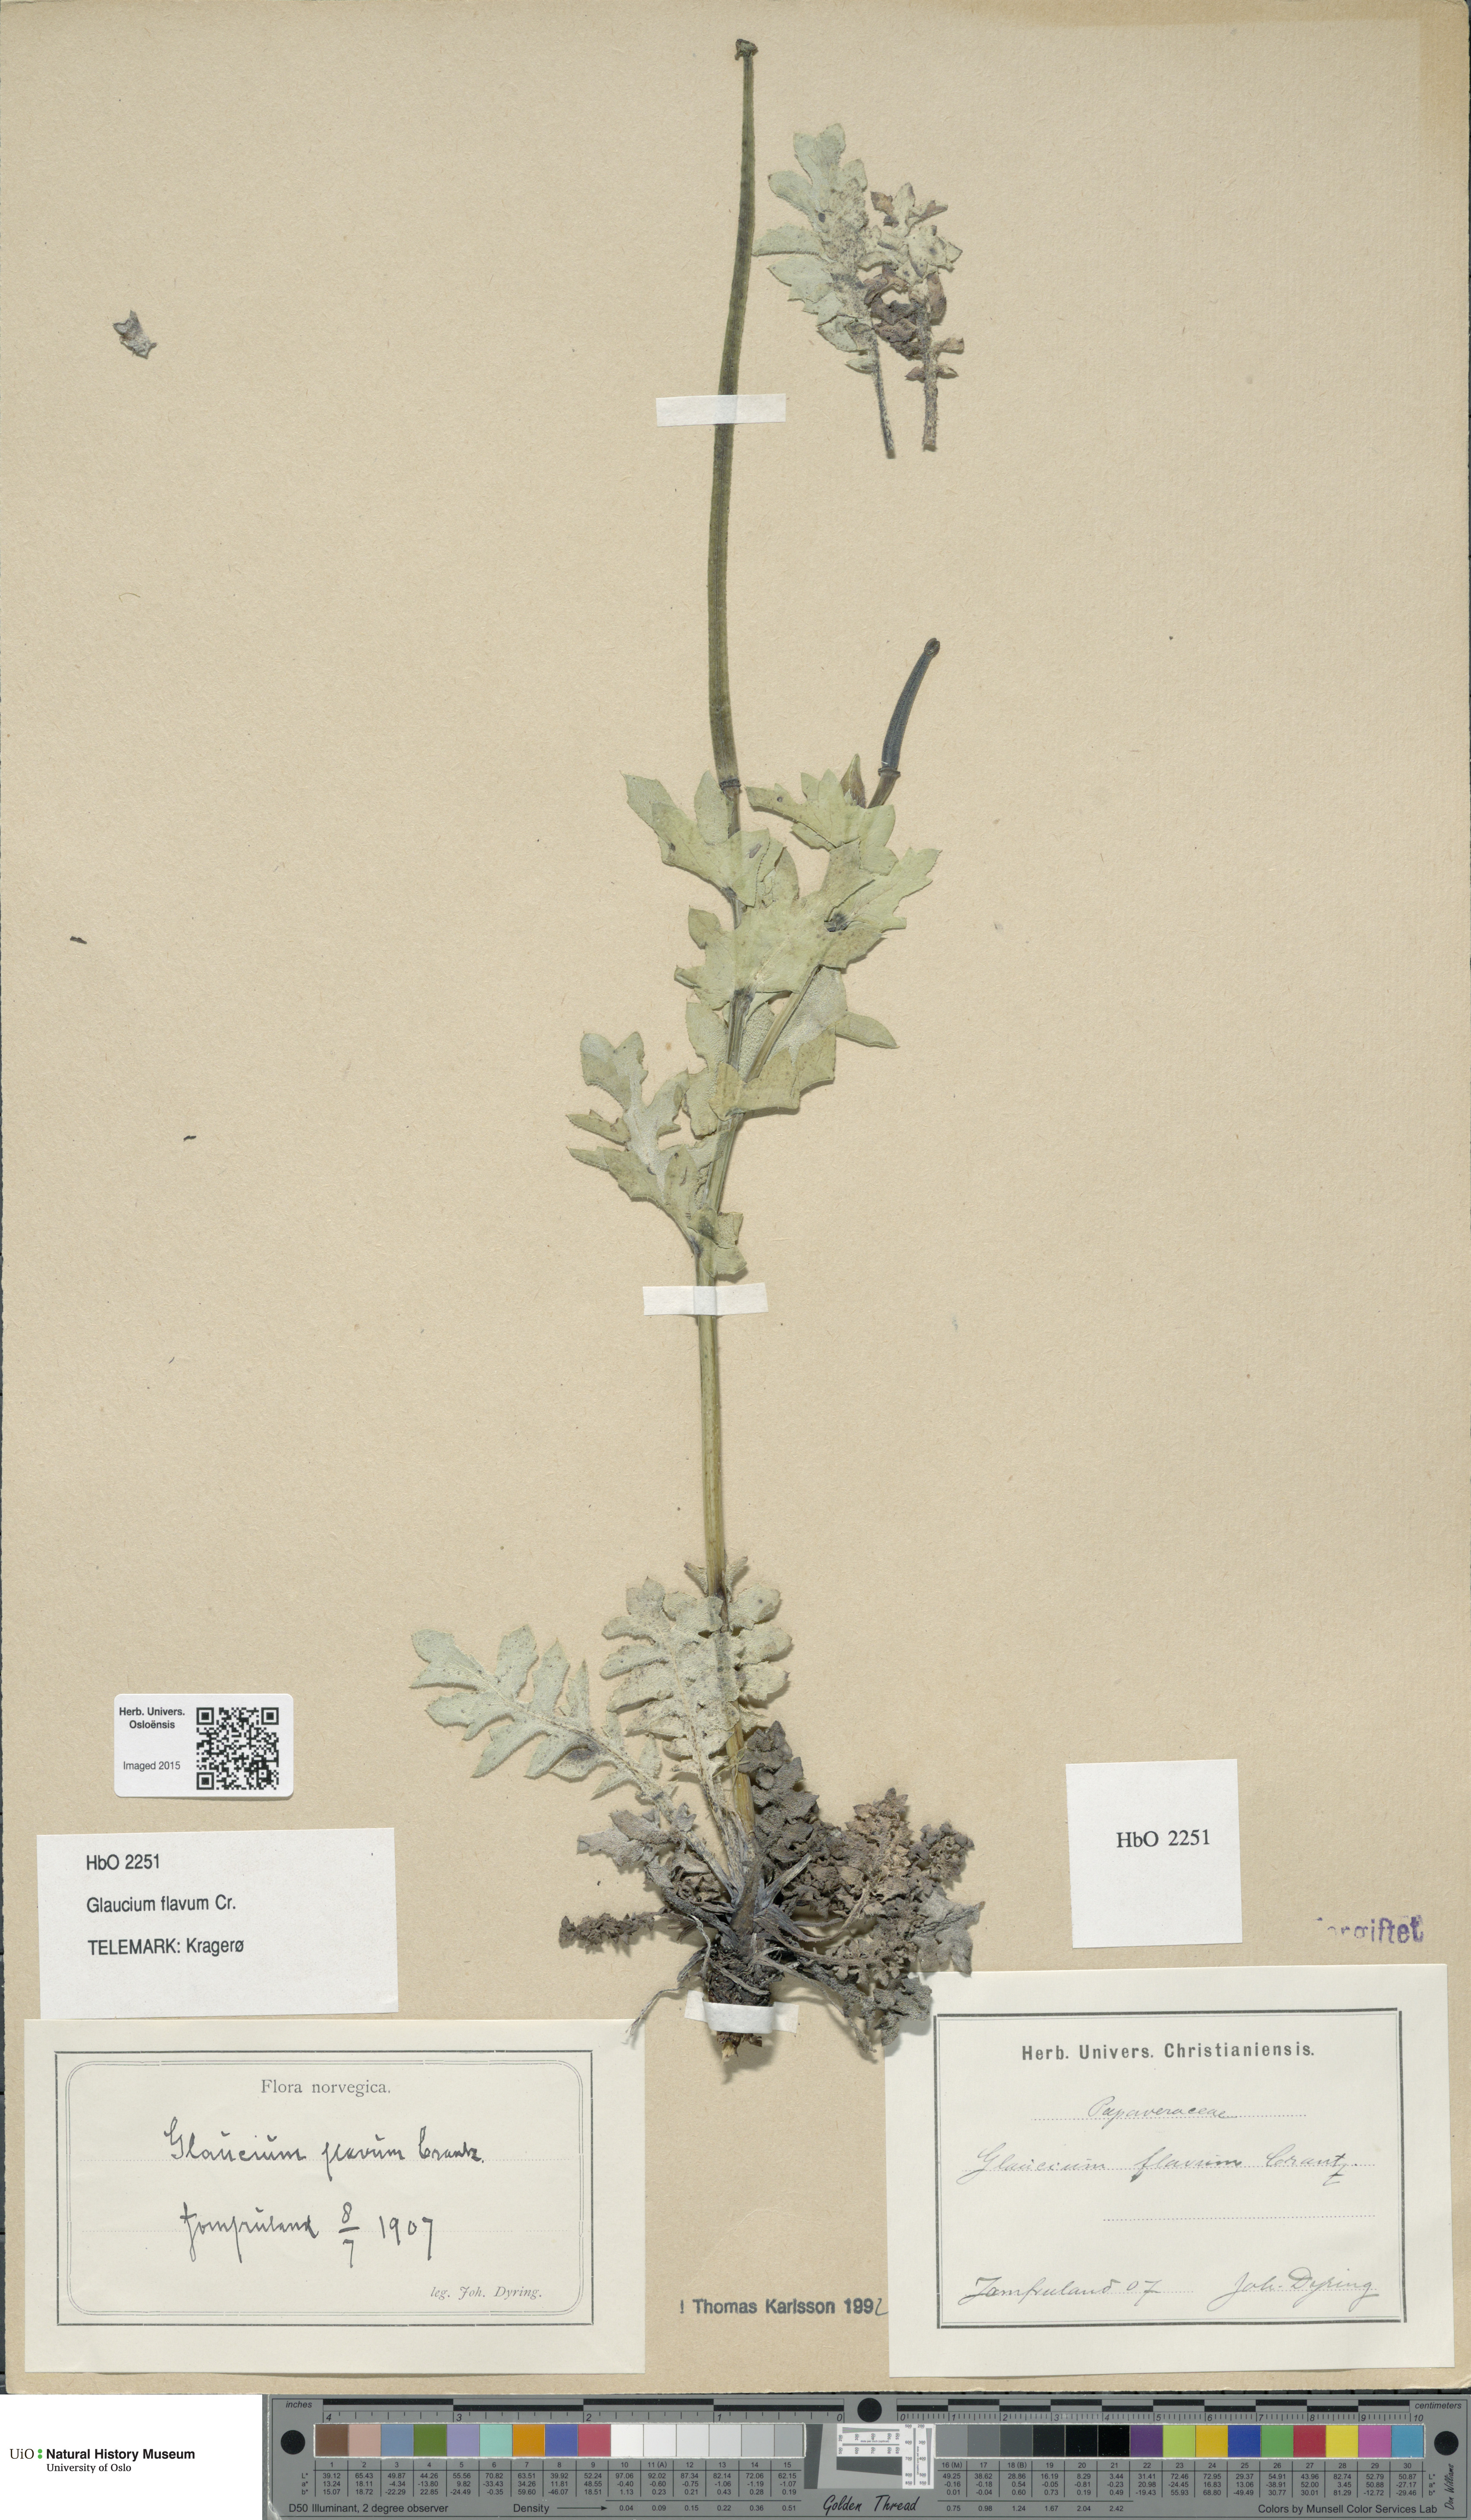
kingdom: Plantae
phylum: Tracheophyta
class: Magnoliopsida
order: Ranunculales
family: Papaveraceae
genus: Glaucium
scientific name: Glaucium flavum
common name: Yellow horned-poppy
